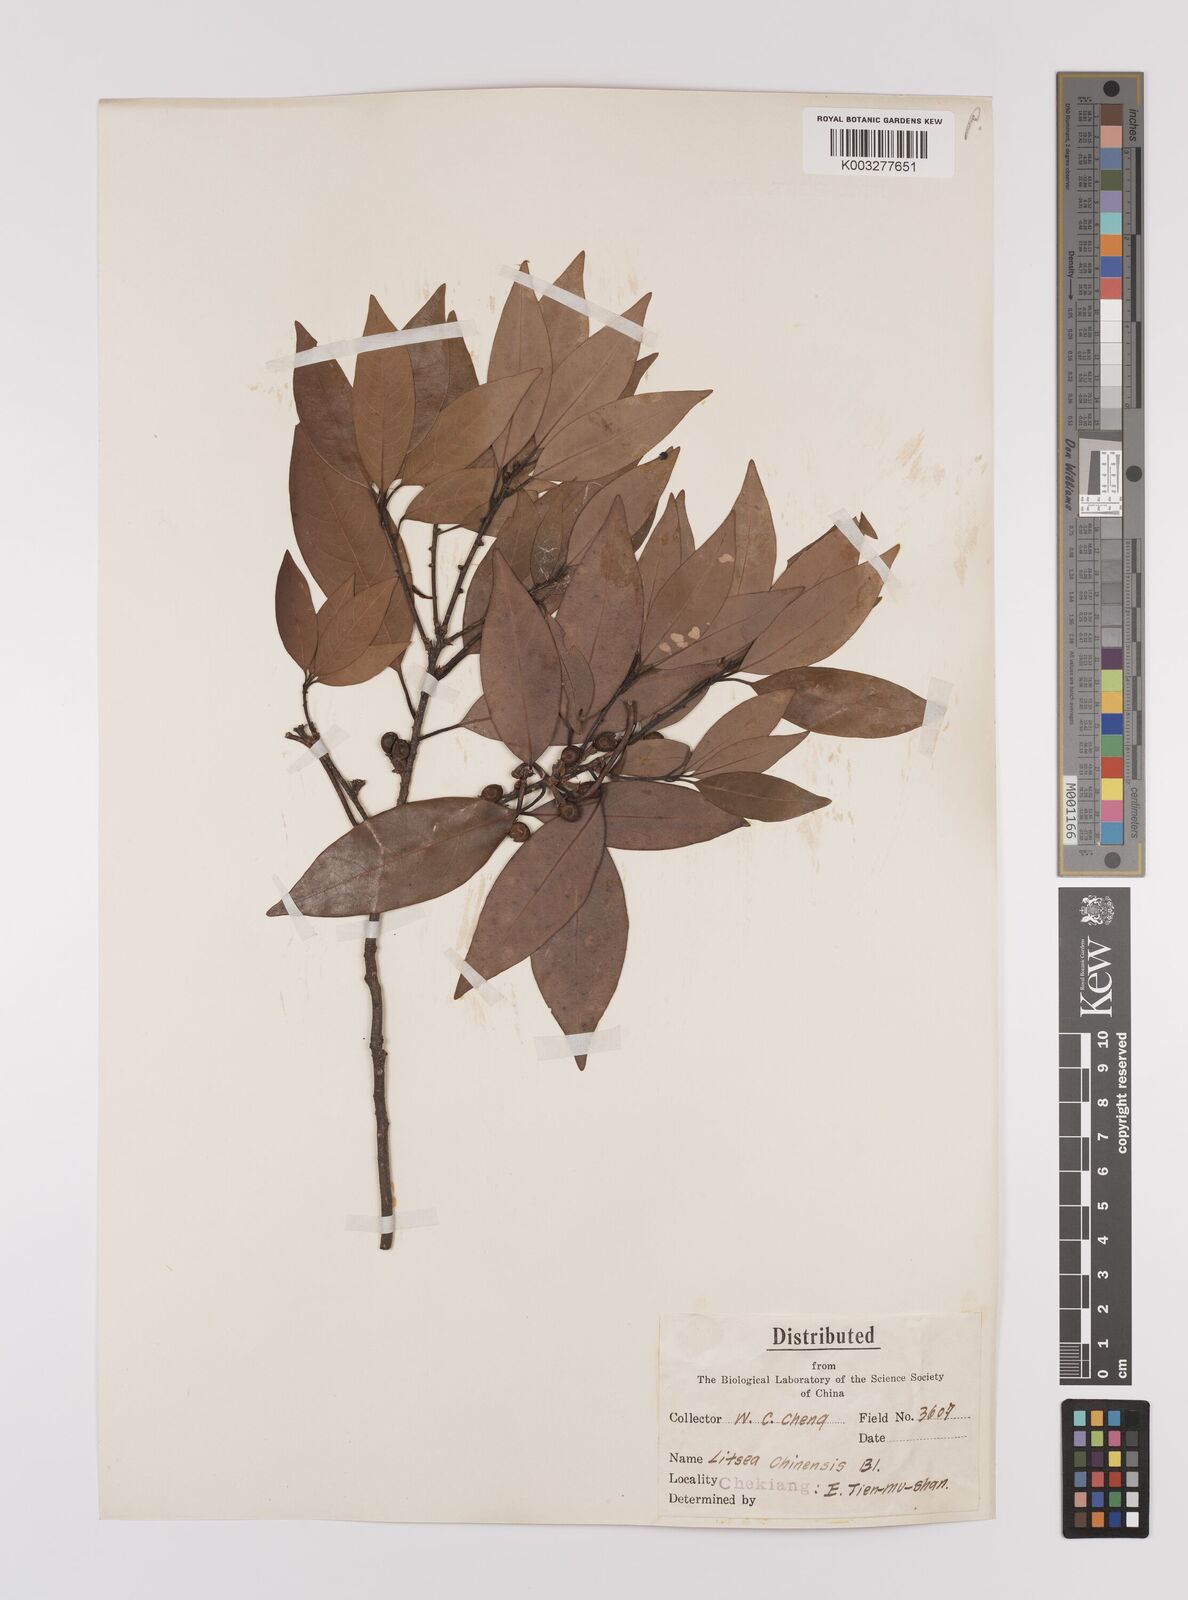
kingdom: Plantae
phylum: Tracheophyta
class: Magnoliopsida
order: Laurales
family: Lauraceae
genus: Litsea
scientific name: Litsea rotundifolia
